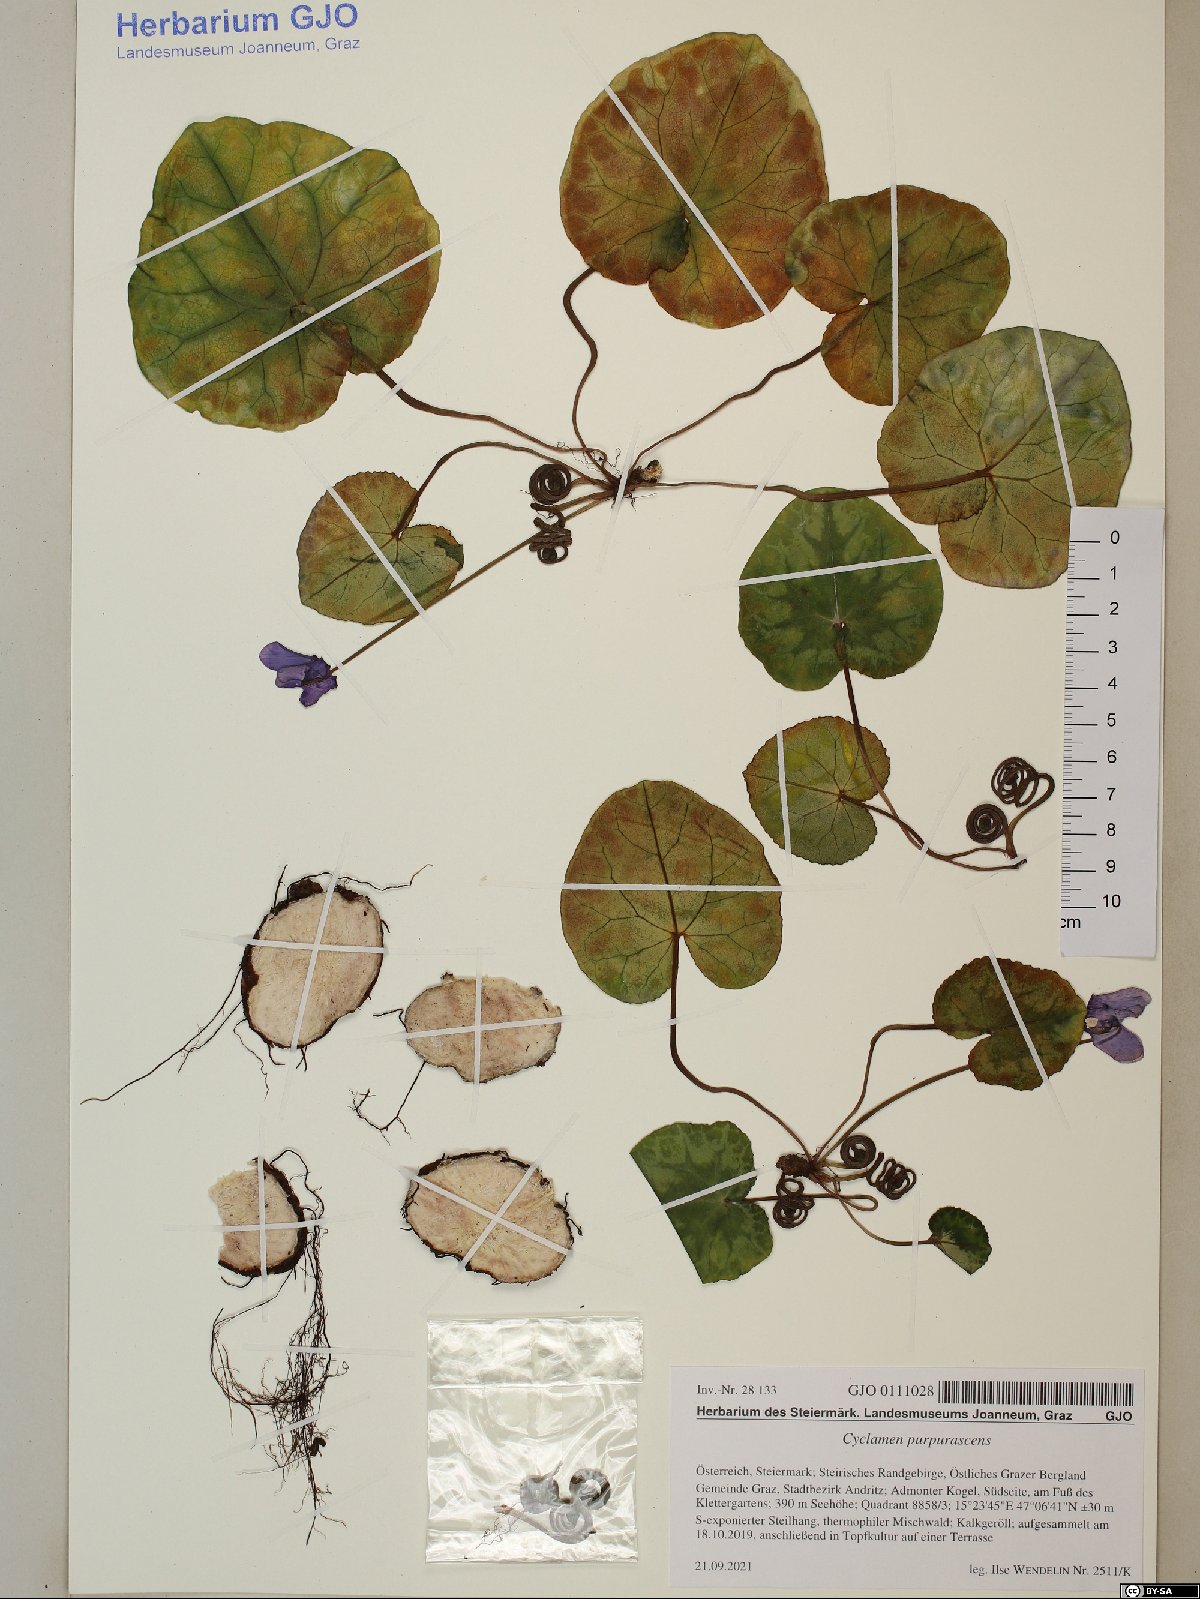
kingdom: Plantae
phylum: Tracheophyta
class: Magnoliopsida
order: Ericales
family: Primulaceae
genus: Cyclamen
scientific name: Cyclamen purpurascens
